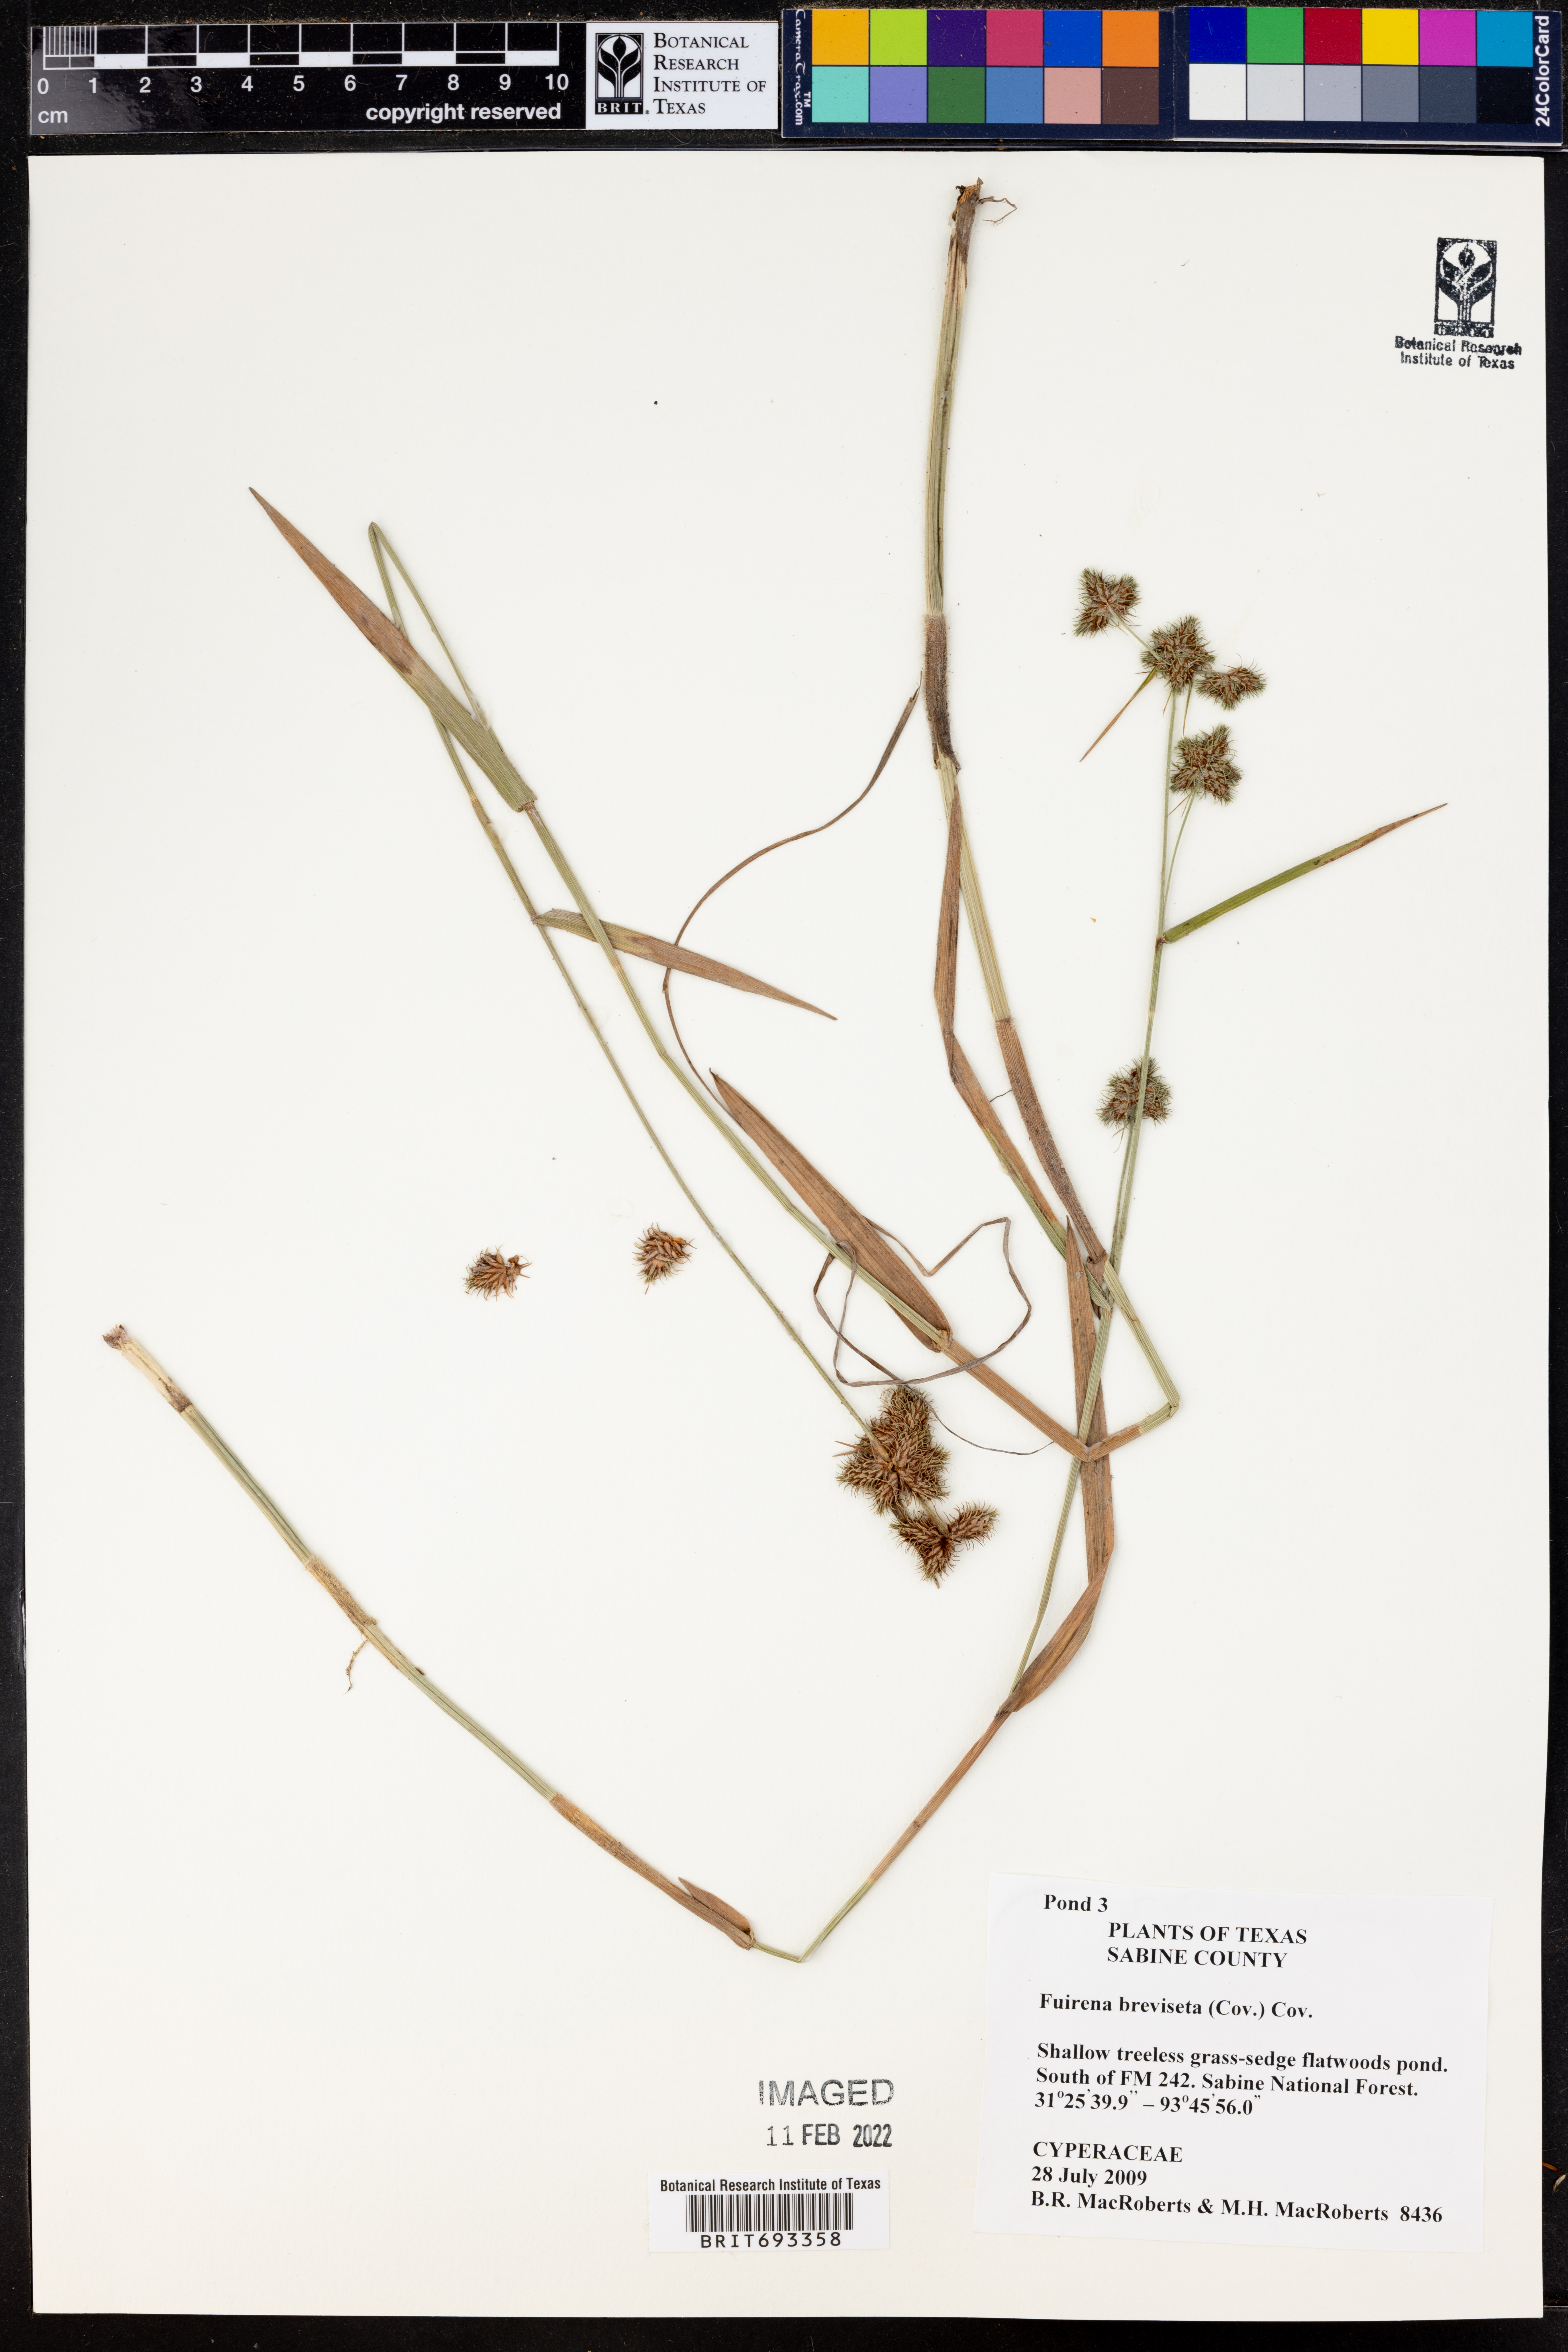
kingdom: Plantae
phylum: Tracheophyta
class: Liliopsida
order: Poales
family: Cyperaceae
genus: Fuirena
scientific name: Fuirena breviseta
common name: Saltmarsh umbrella sedge
